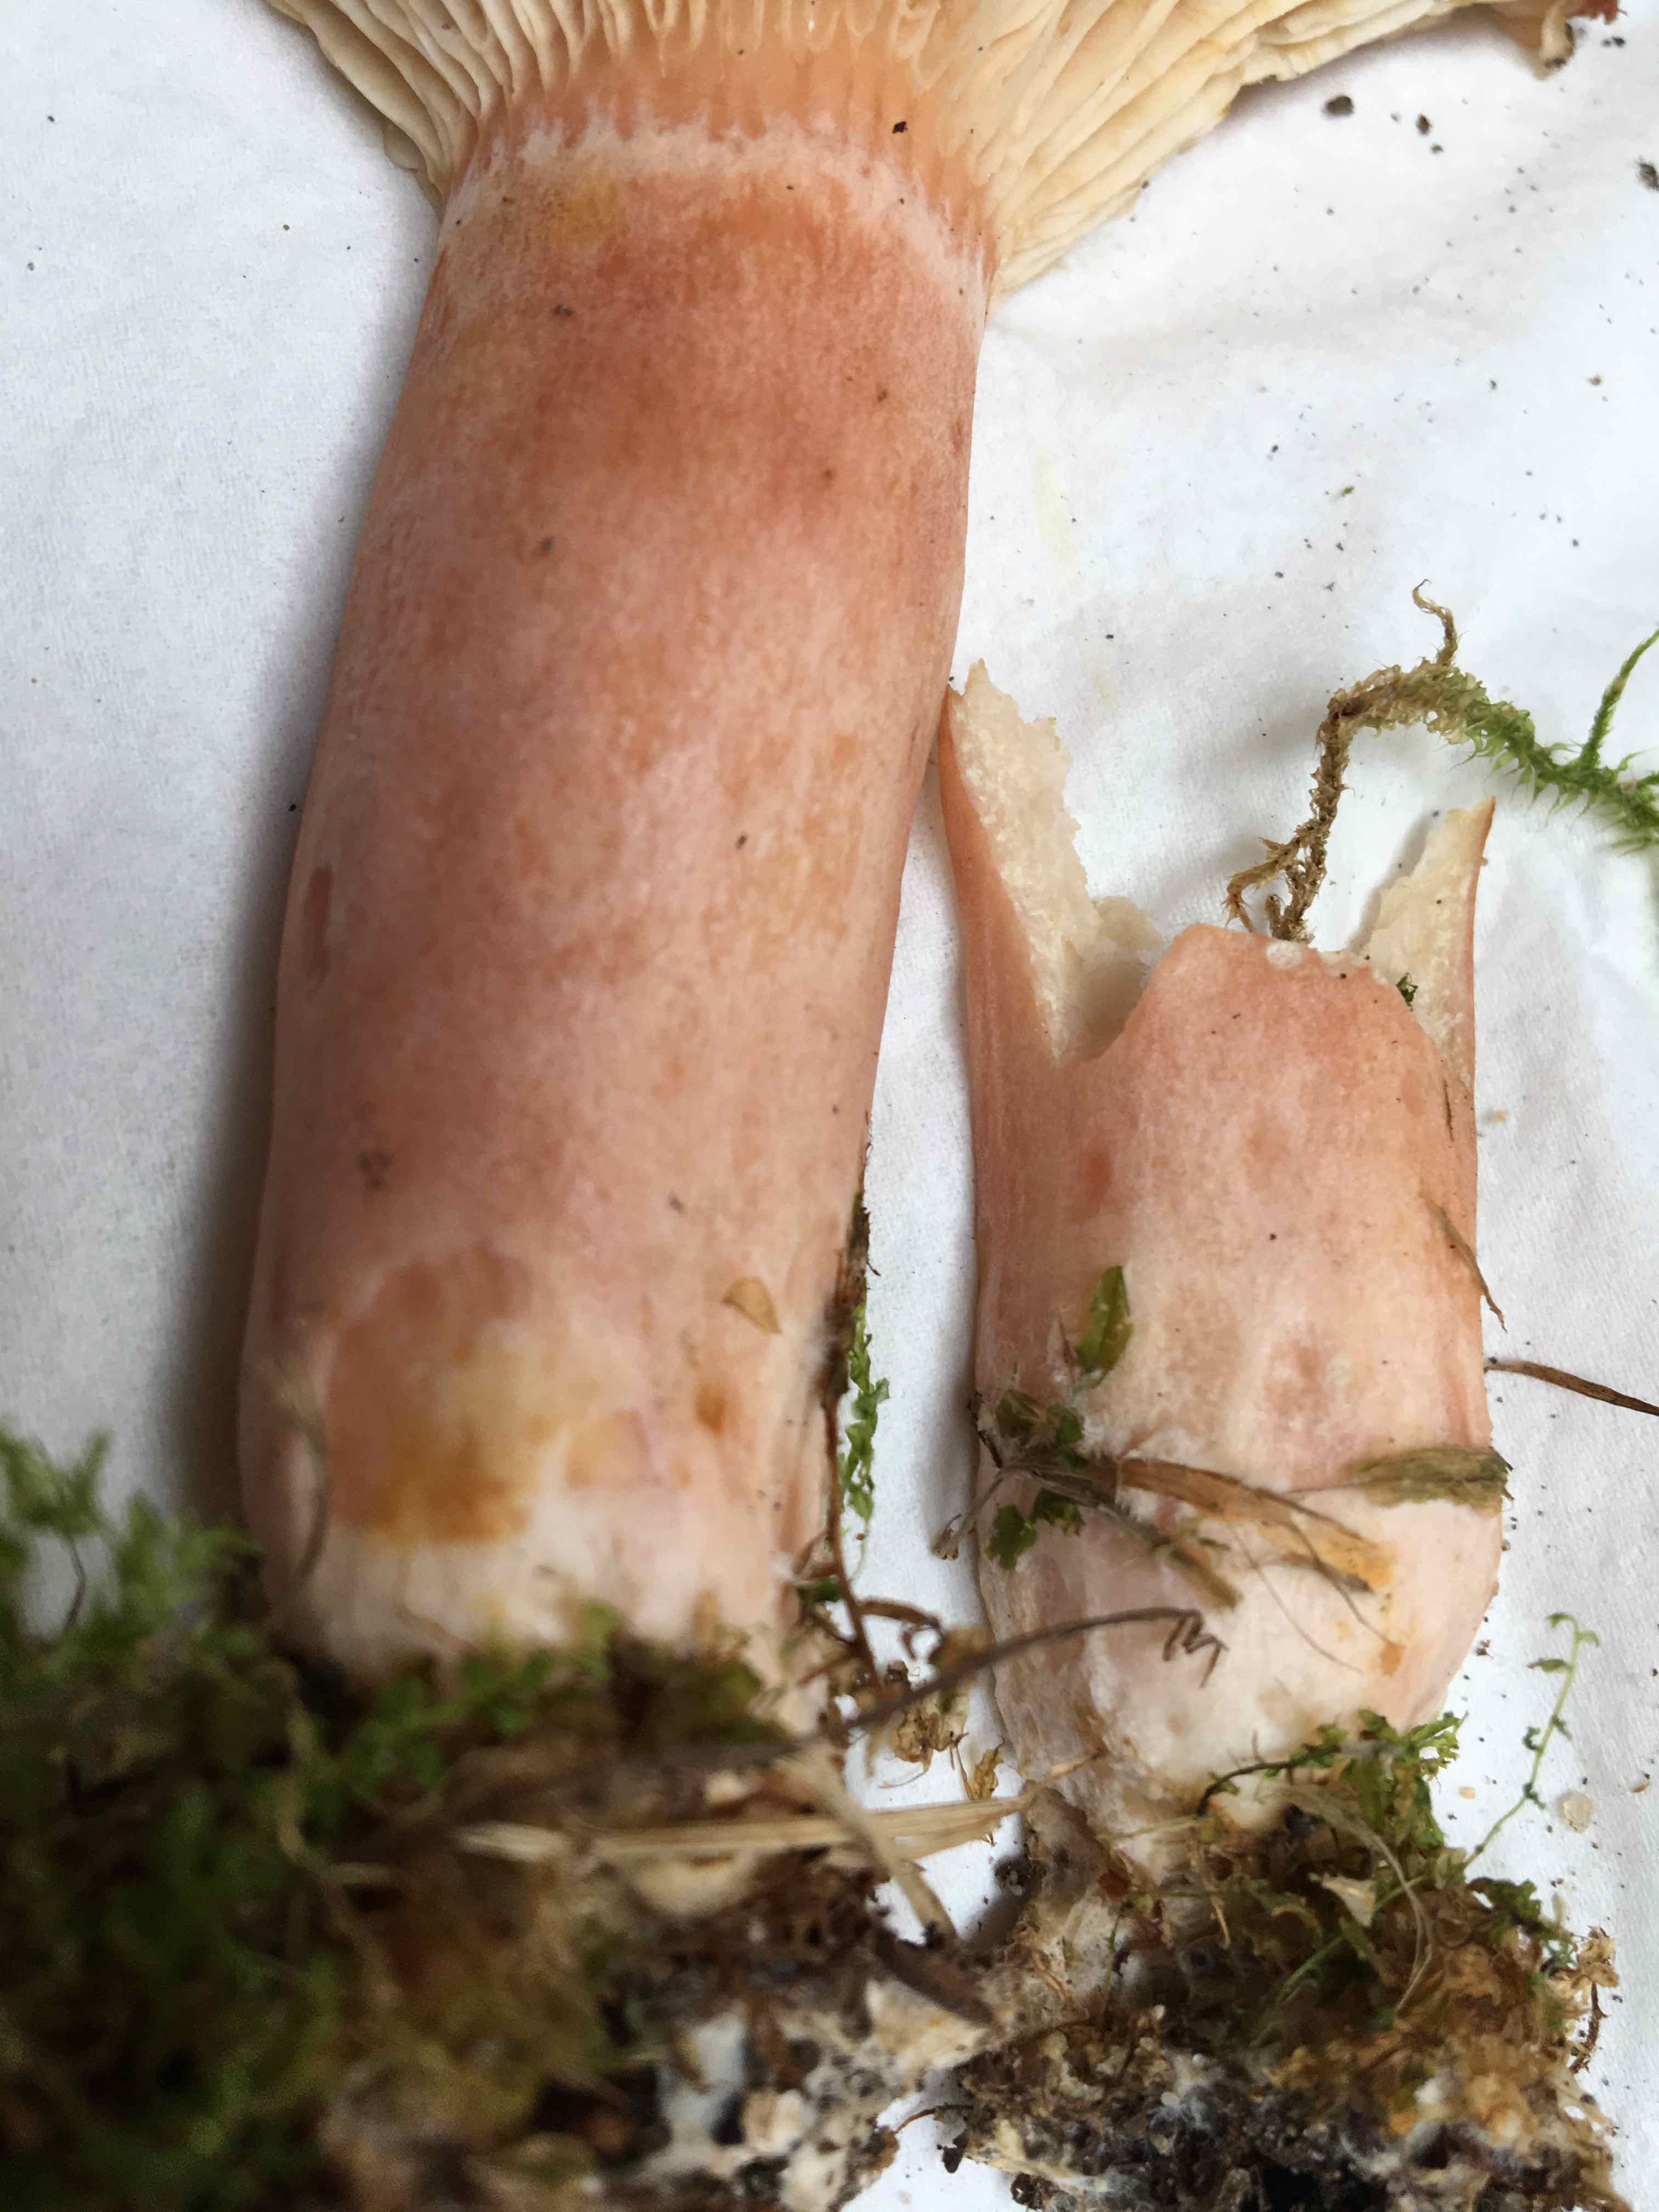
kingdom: Fungi
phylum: Basidiomycota
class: Agaricomycetes
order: Russulales
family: Russulaceae
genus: Lactarius
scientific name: Lactarius torminosus
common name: skægget mælkehat
